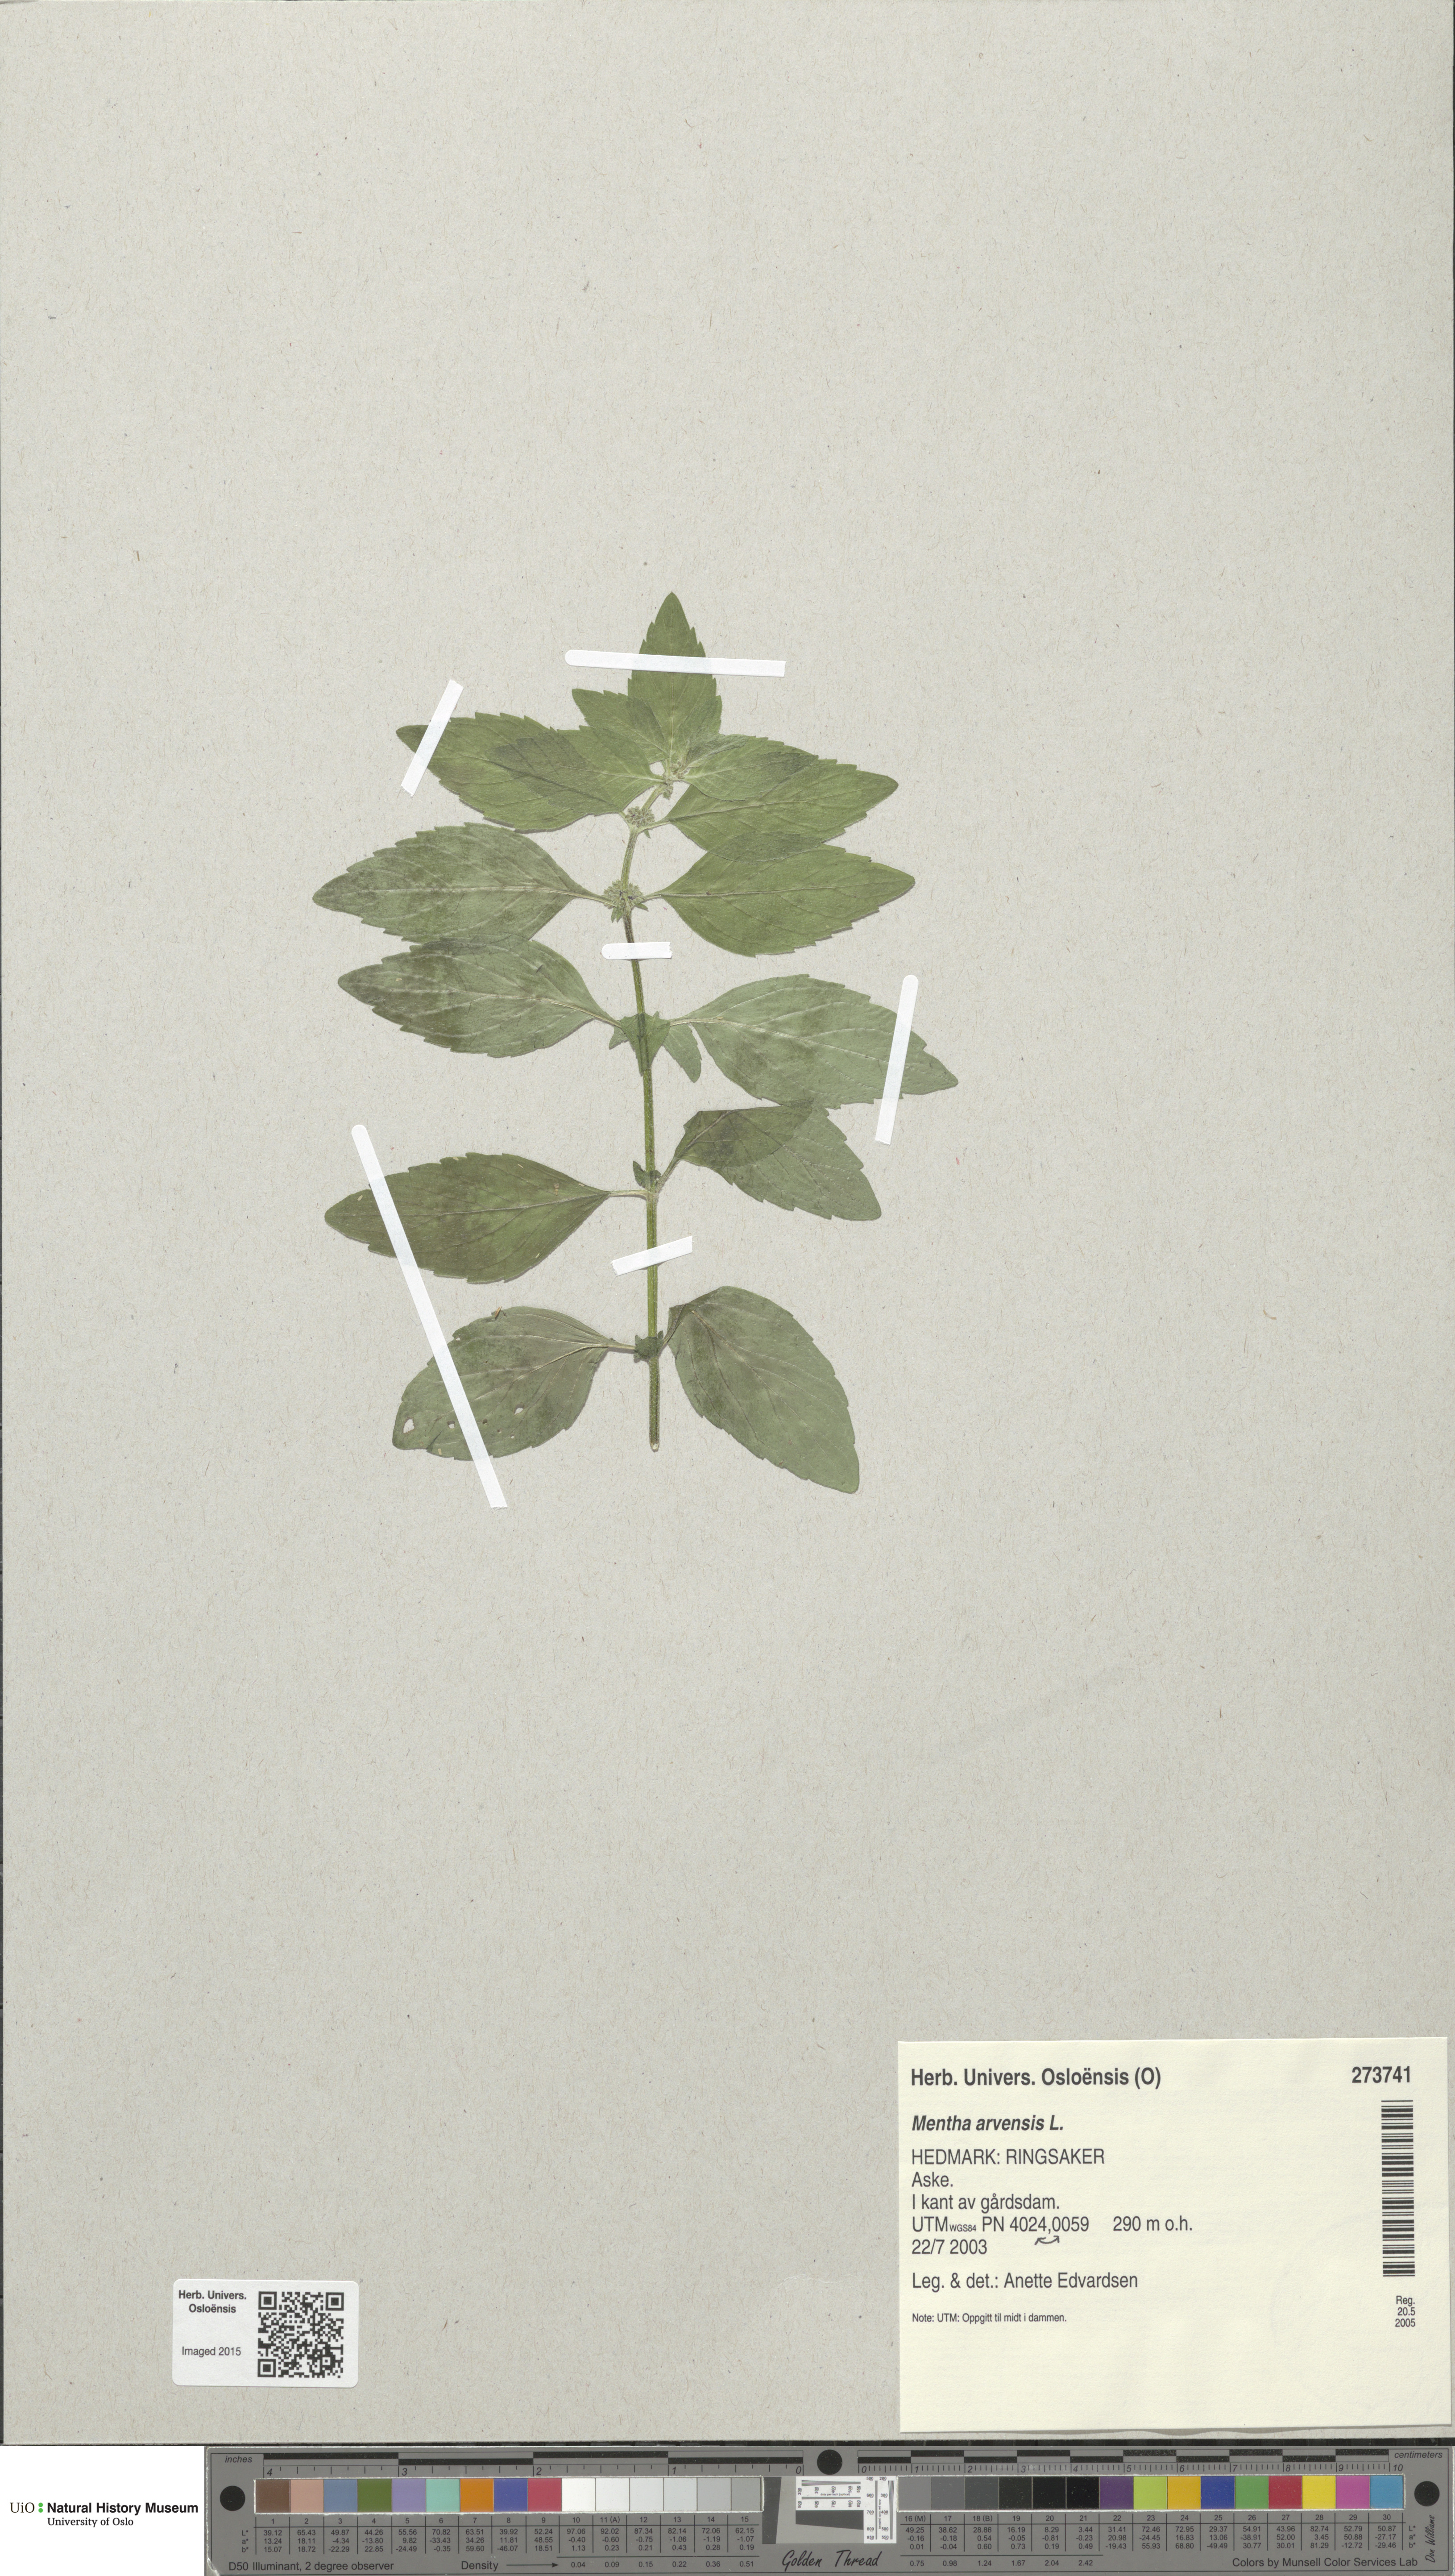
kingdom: Plantae
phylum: Tracheophyta
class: Magnoliopsida
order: Lamiales
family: Lamiaceae
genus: Mentha
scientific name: Mentha arvensis
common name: Corn mint
